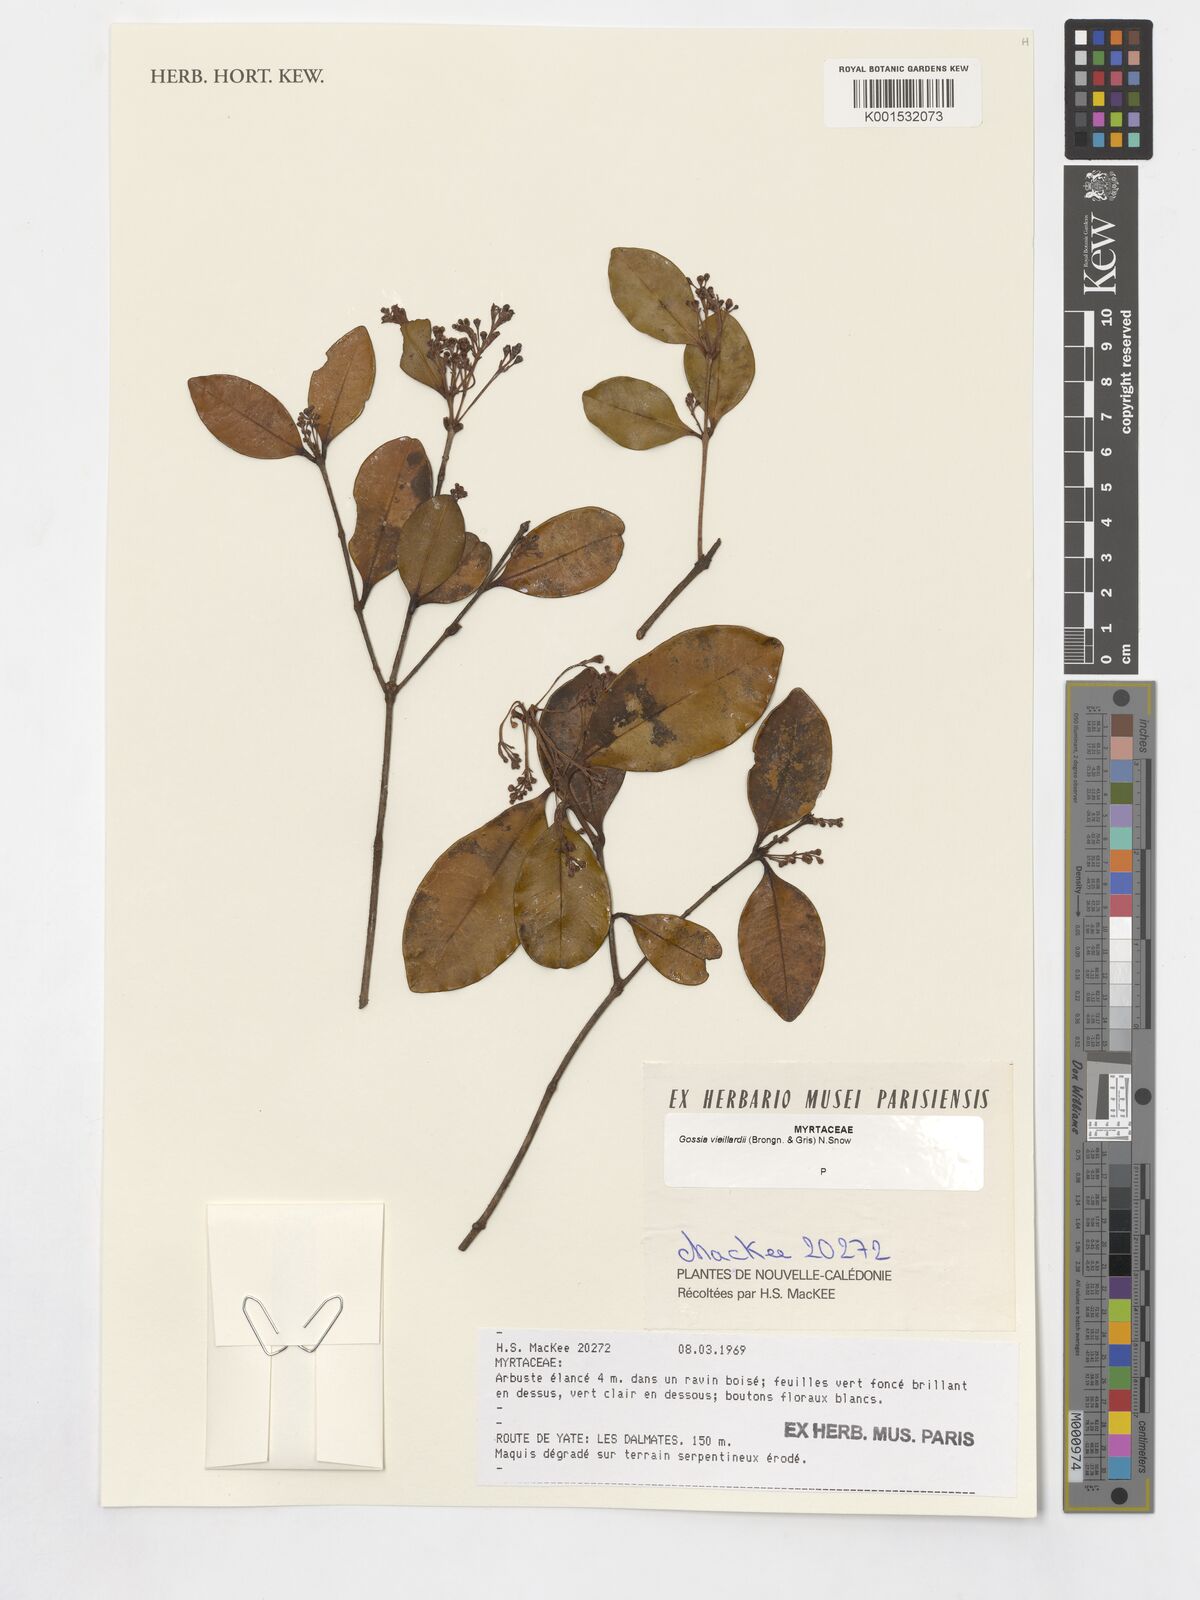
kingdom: Plantae
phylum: Tracheophyta
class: Magnoliopsida
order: Myrtales
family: Myrtaceae
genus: Gossia
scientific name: Gossia vieillardii
